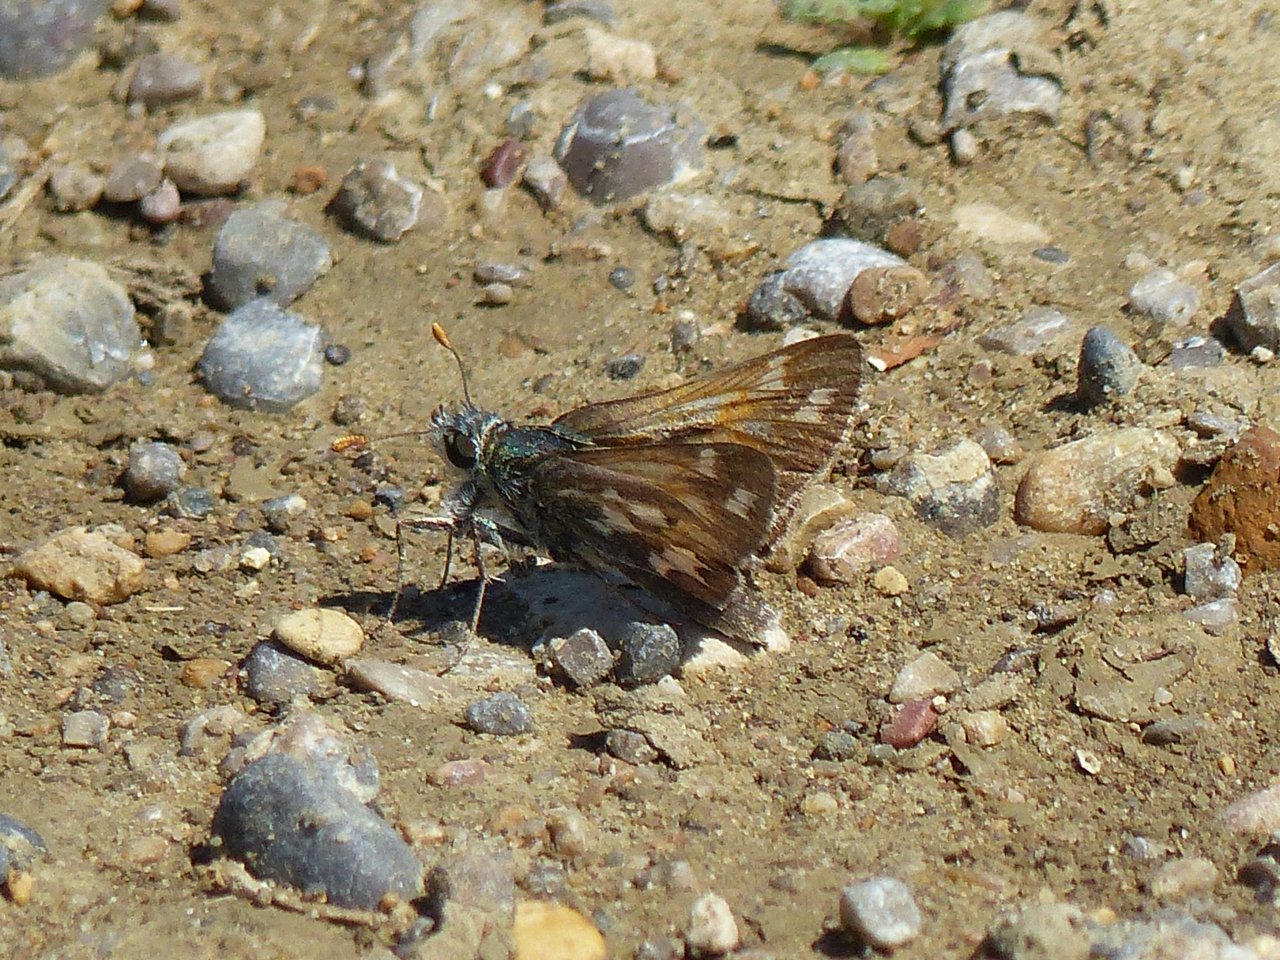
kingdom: Animalia
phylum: Arthropoda
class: Insecta
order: Lepidoptera
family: Hesperiidae
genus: Hesperia
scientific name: Hesperia nevada
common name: Nevada Skipper
